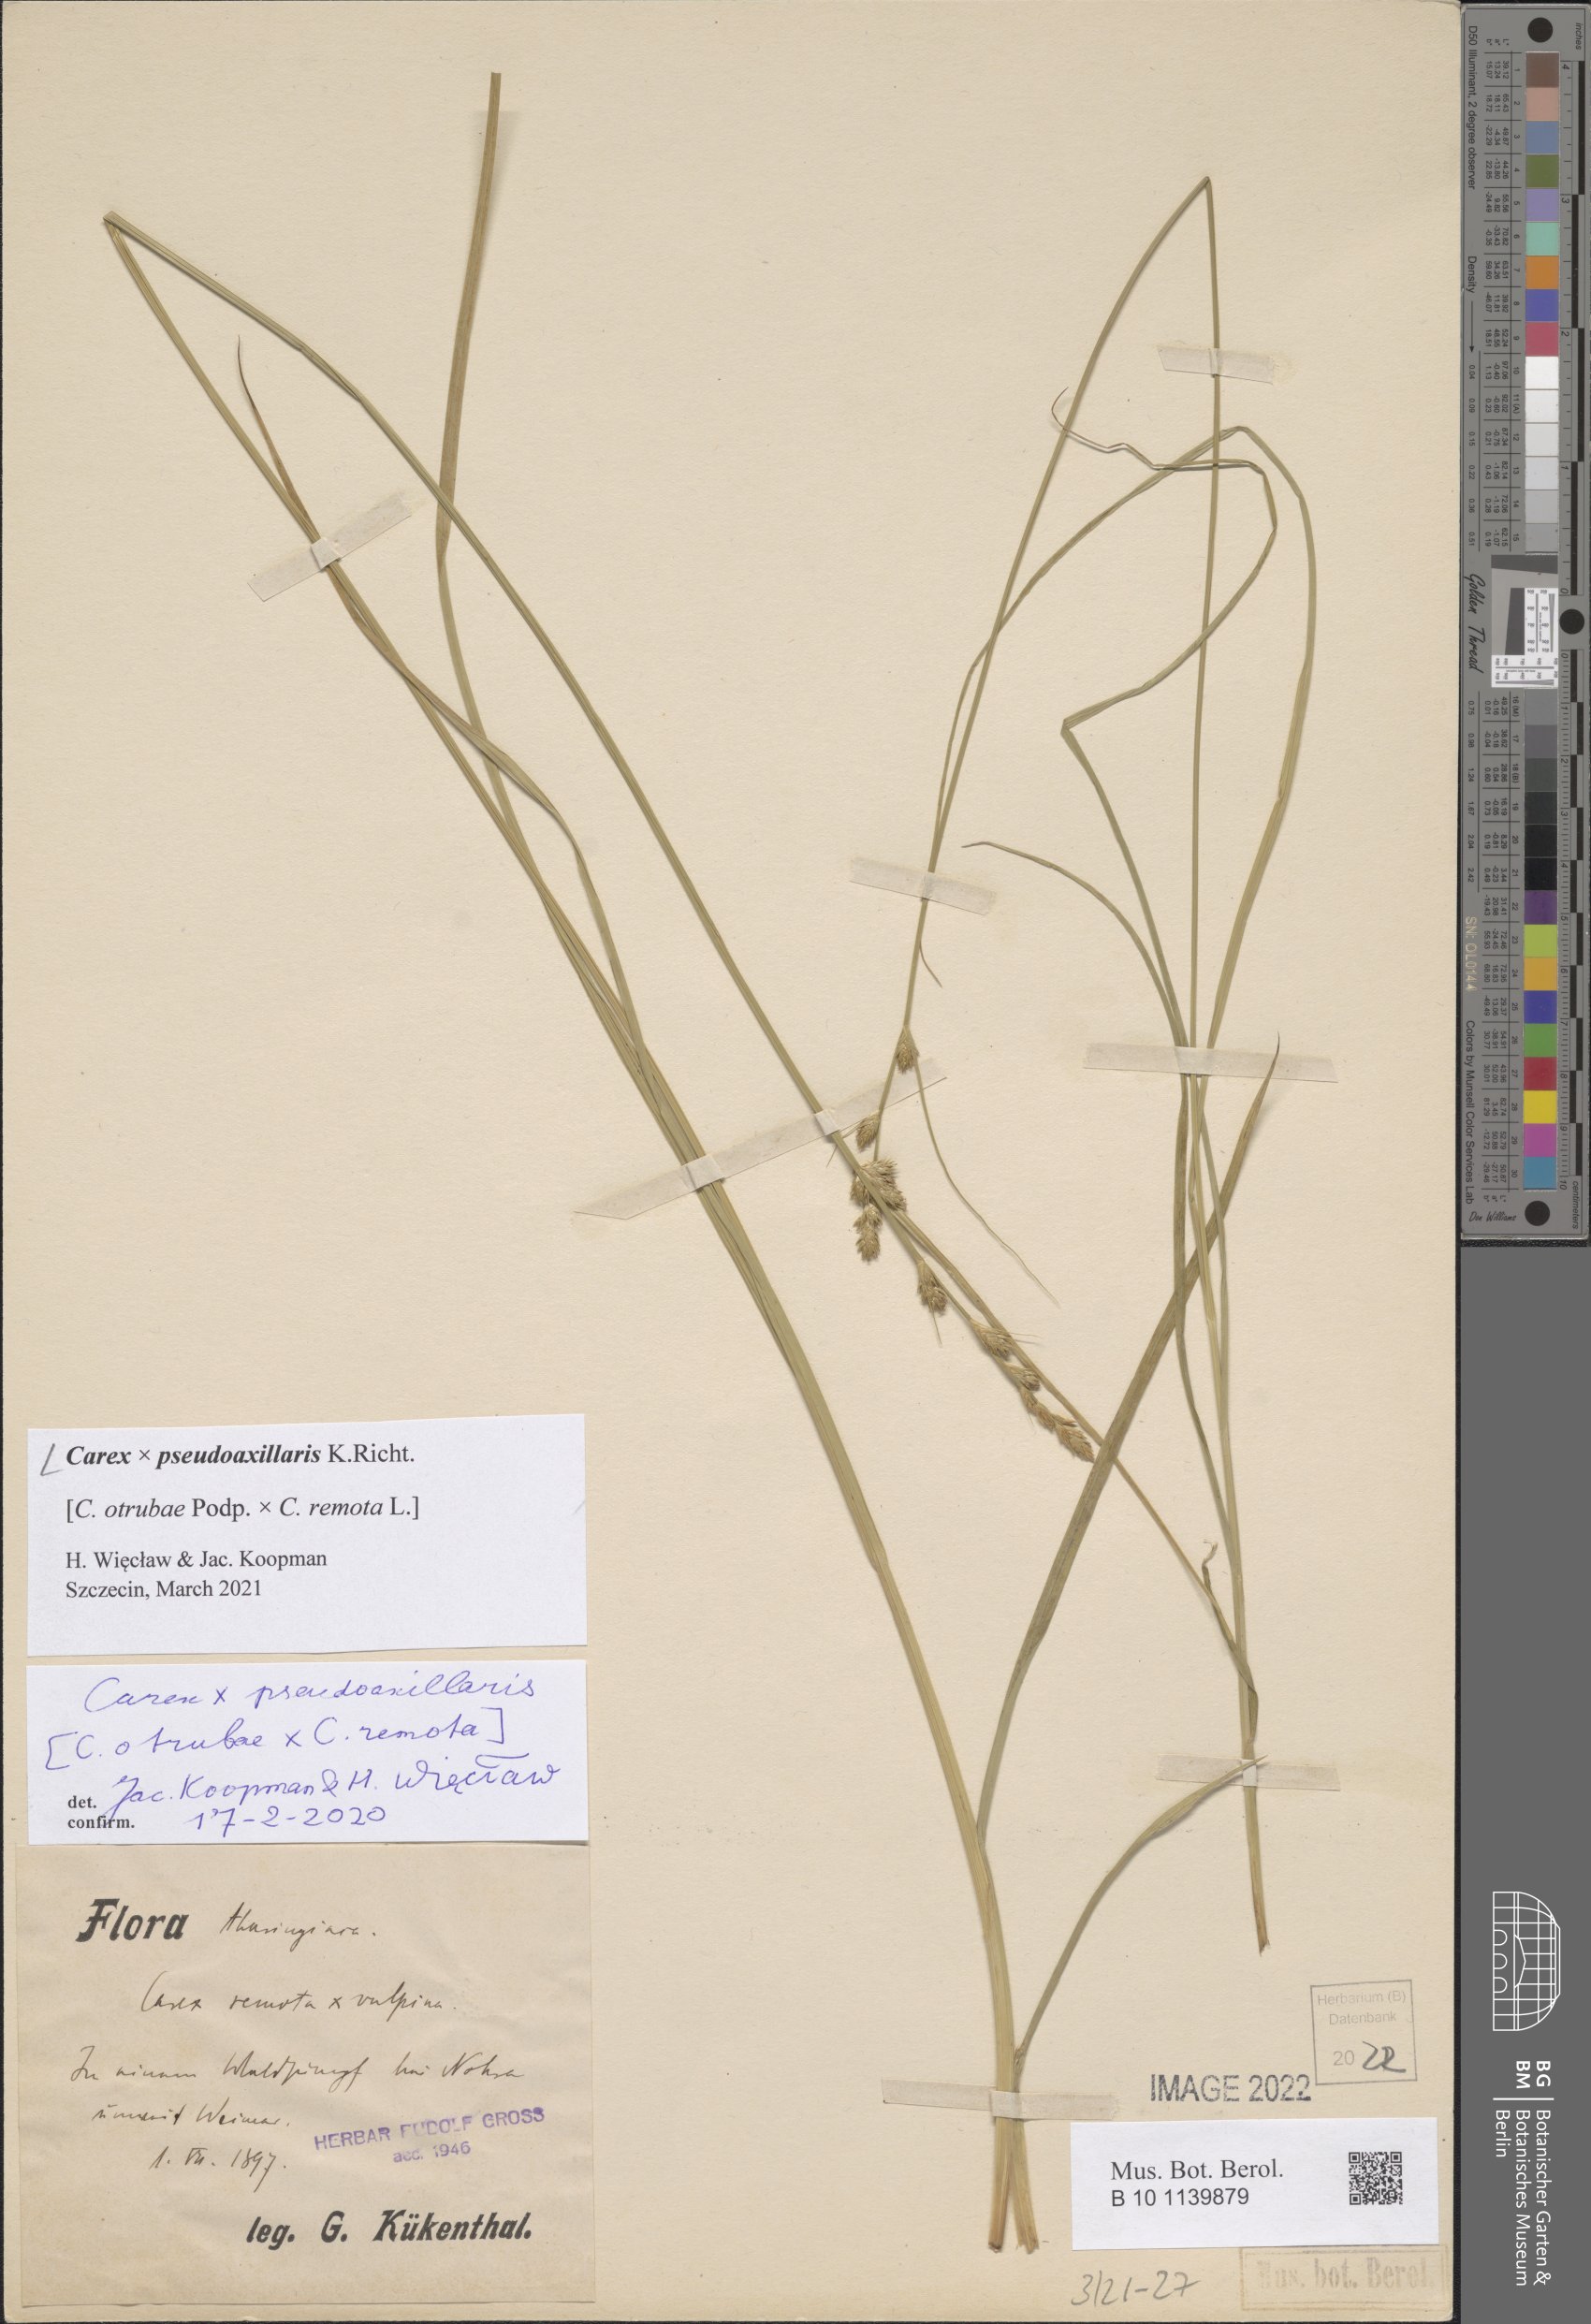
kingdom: Plantae
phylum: Tracheophyta
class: Liliopsida
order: Poales
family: Cyperaceae
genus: Carex
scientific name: Carex pseudoaxillaris
